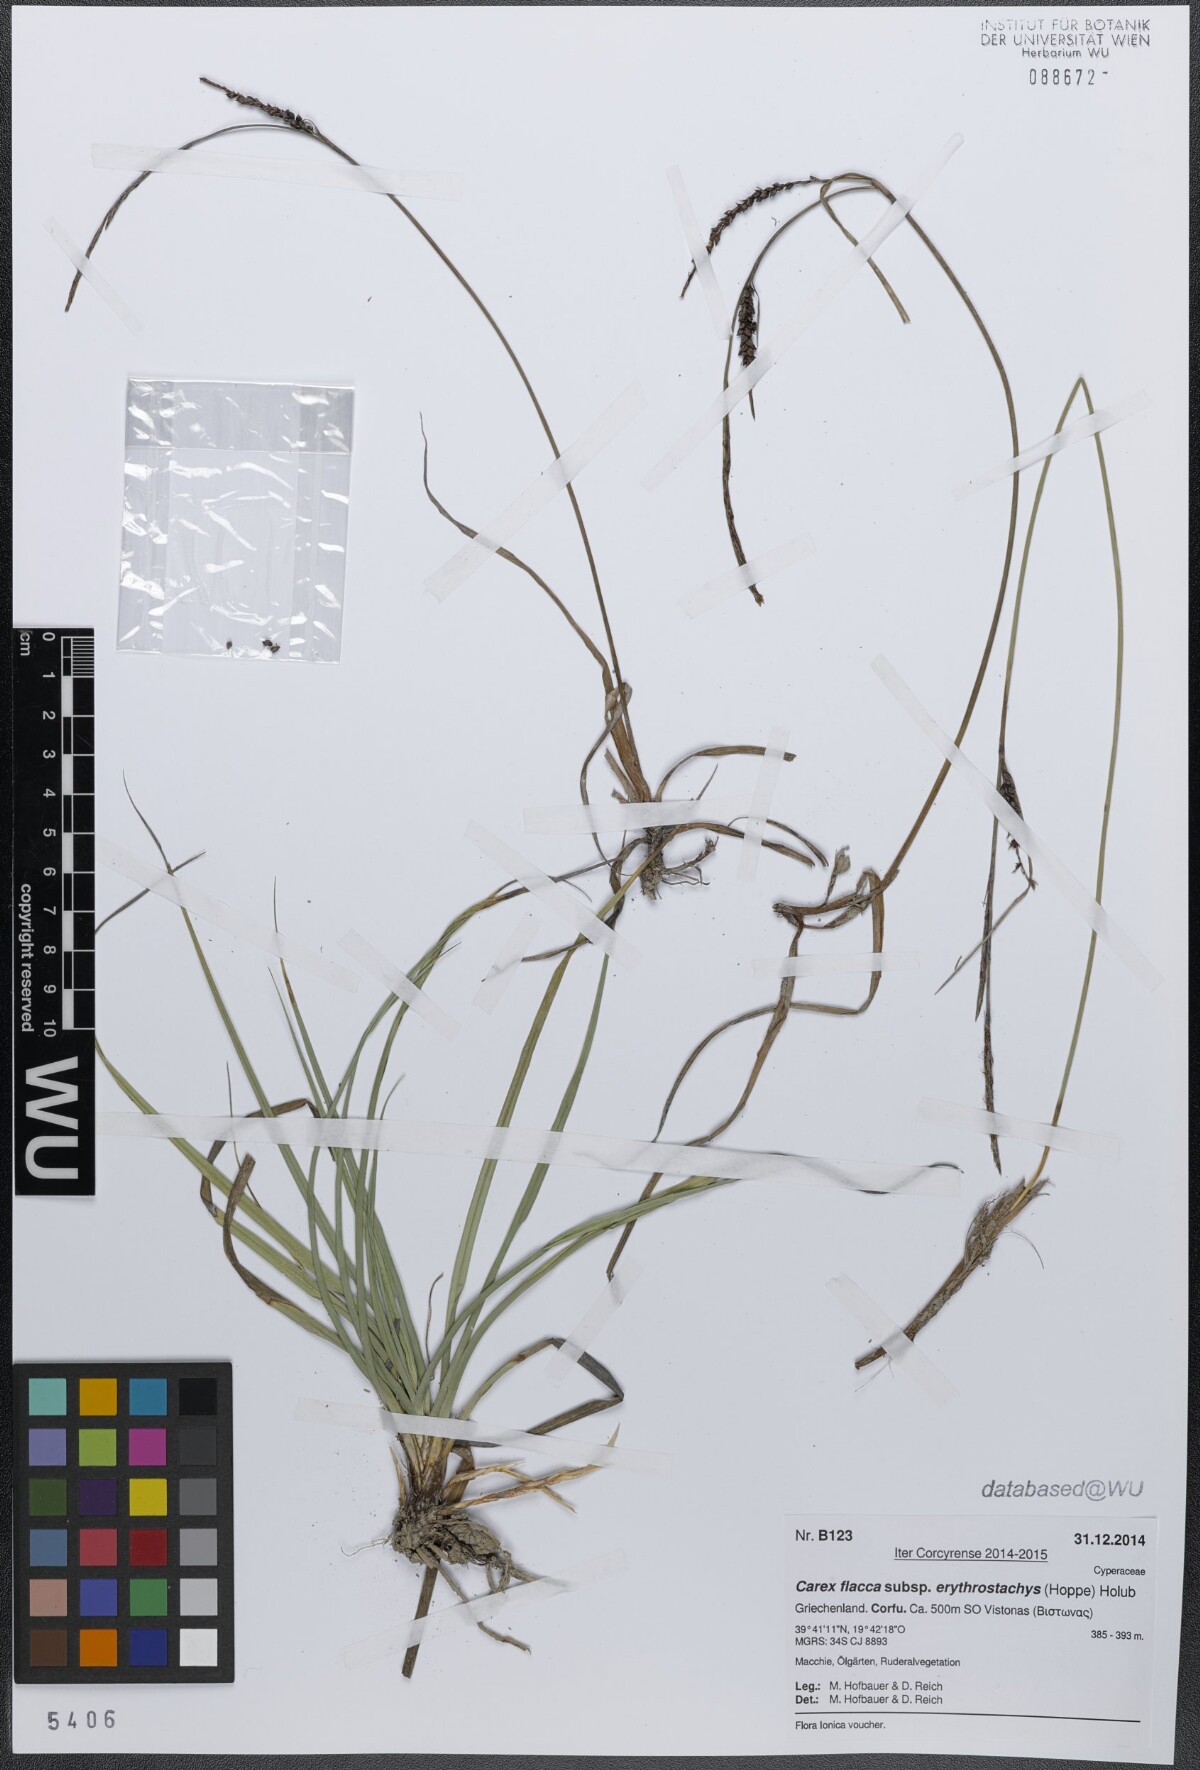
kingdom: Plantae
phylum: Tracheophyta
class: Liliopsida
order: Poales
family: Cyperaceae
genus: Carex
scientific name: Carex flacca
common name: Glaucous sedge
